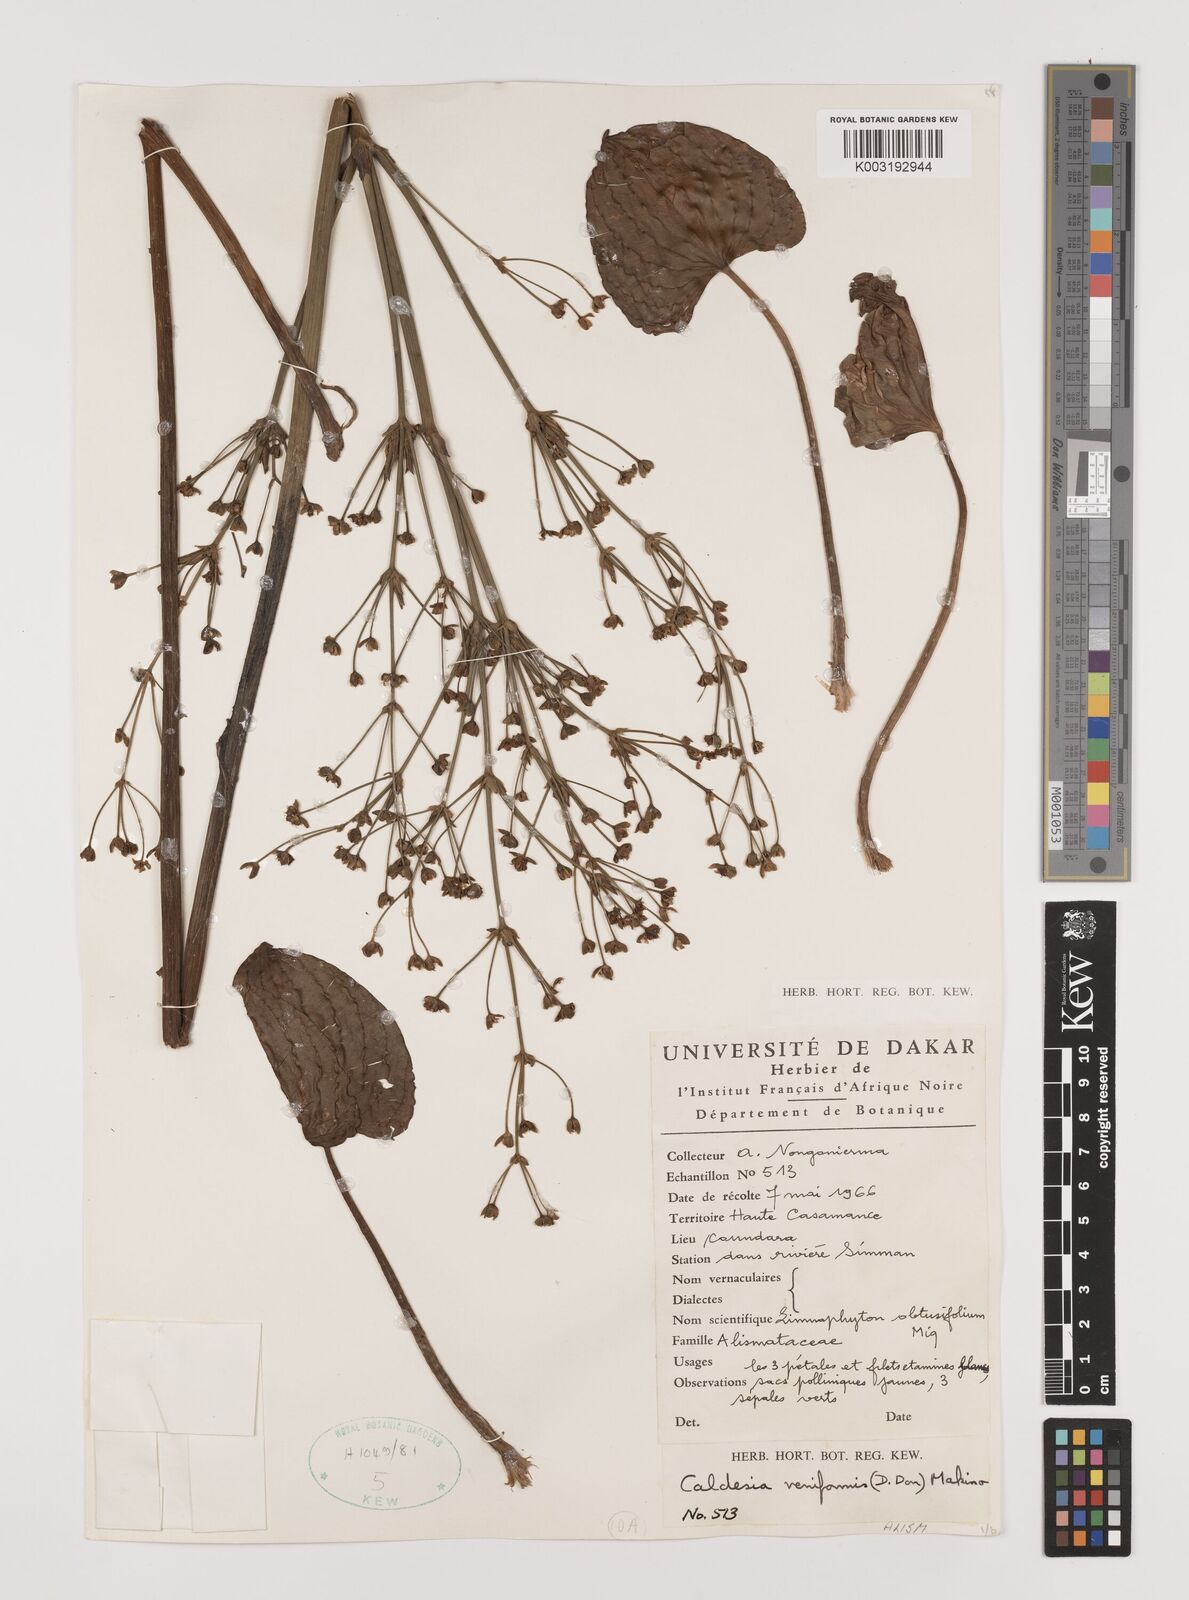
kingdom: Plantae
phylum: Tracheophyta
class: Liliopsida
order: Alismatales
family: Alismataceae
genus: Caldesia
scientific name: Caldesia parnassifolia
